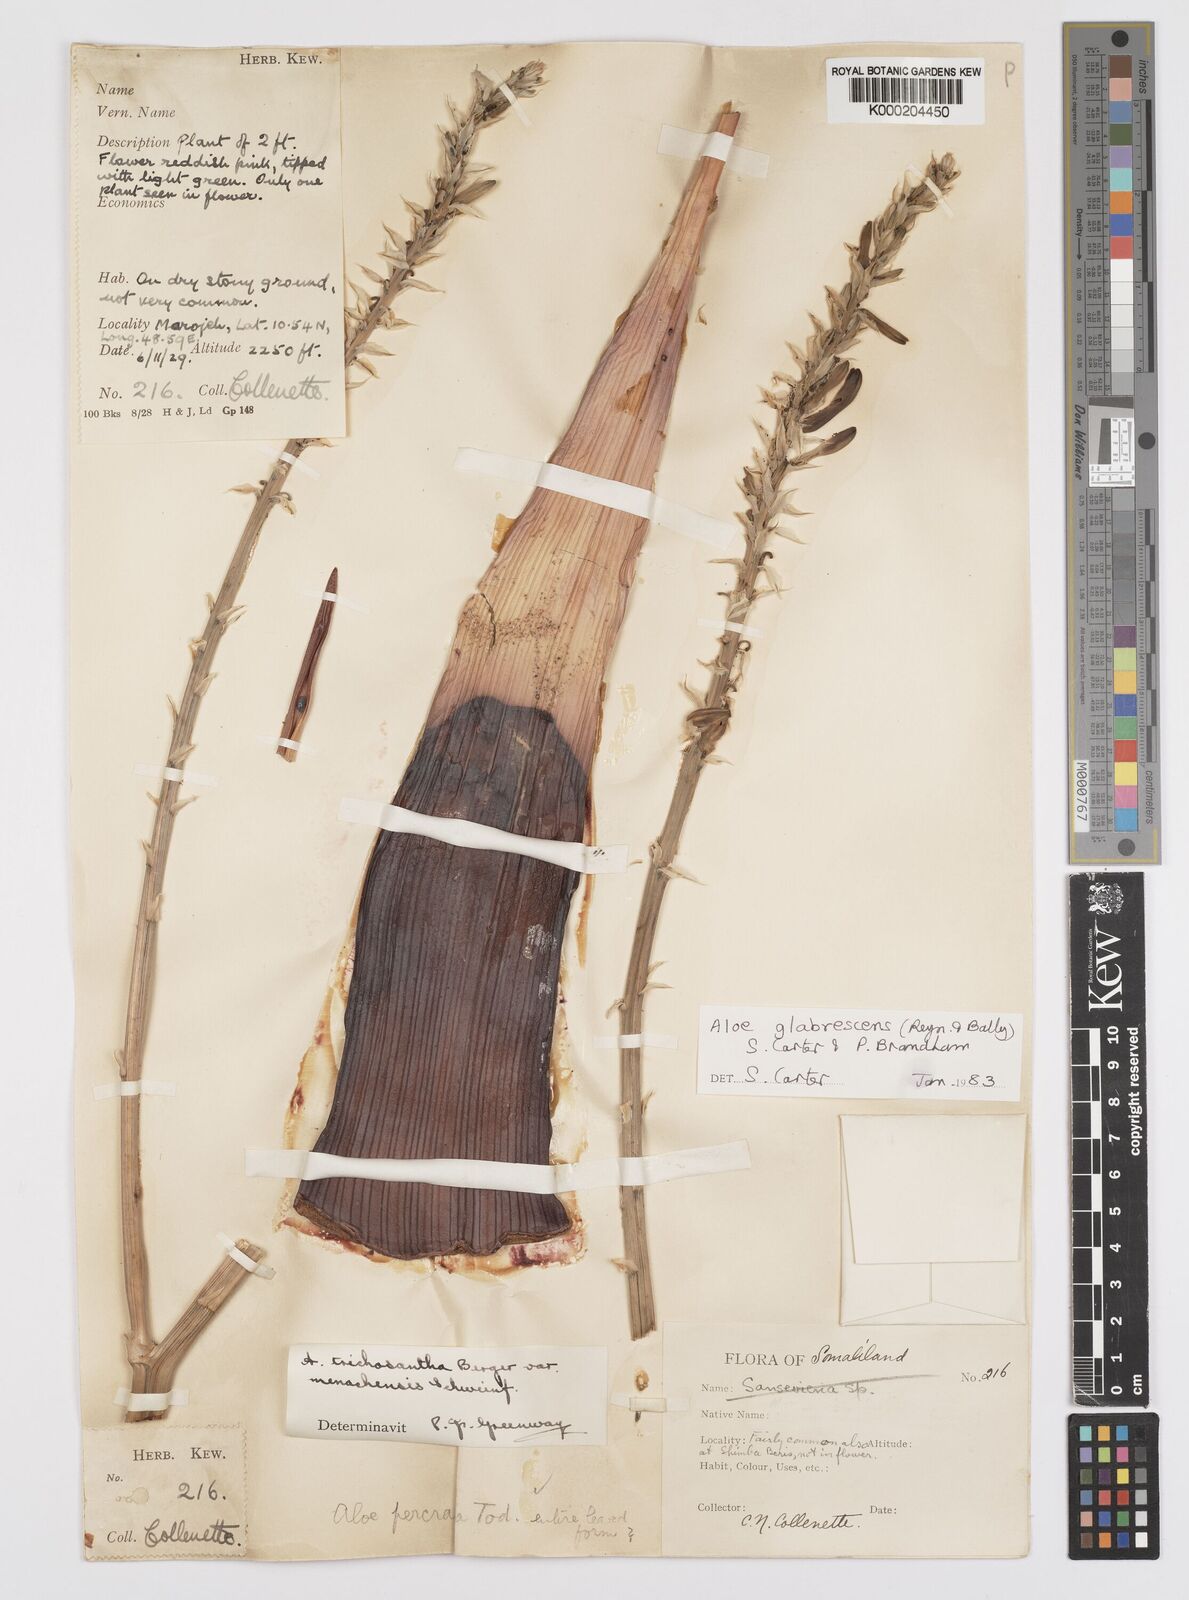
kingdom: Plantae
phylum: Tracheophyta
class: Liliopsida
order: Asparagales
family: Asphodelaceae
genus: Aloe
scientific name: Aloe glabrescens
